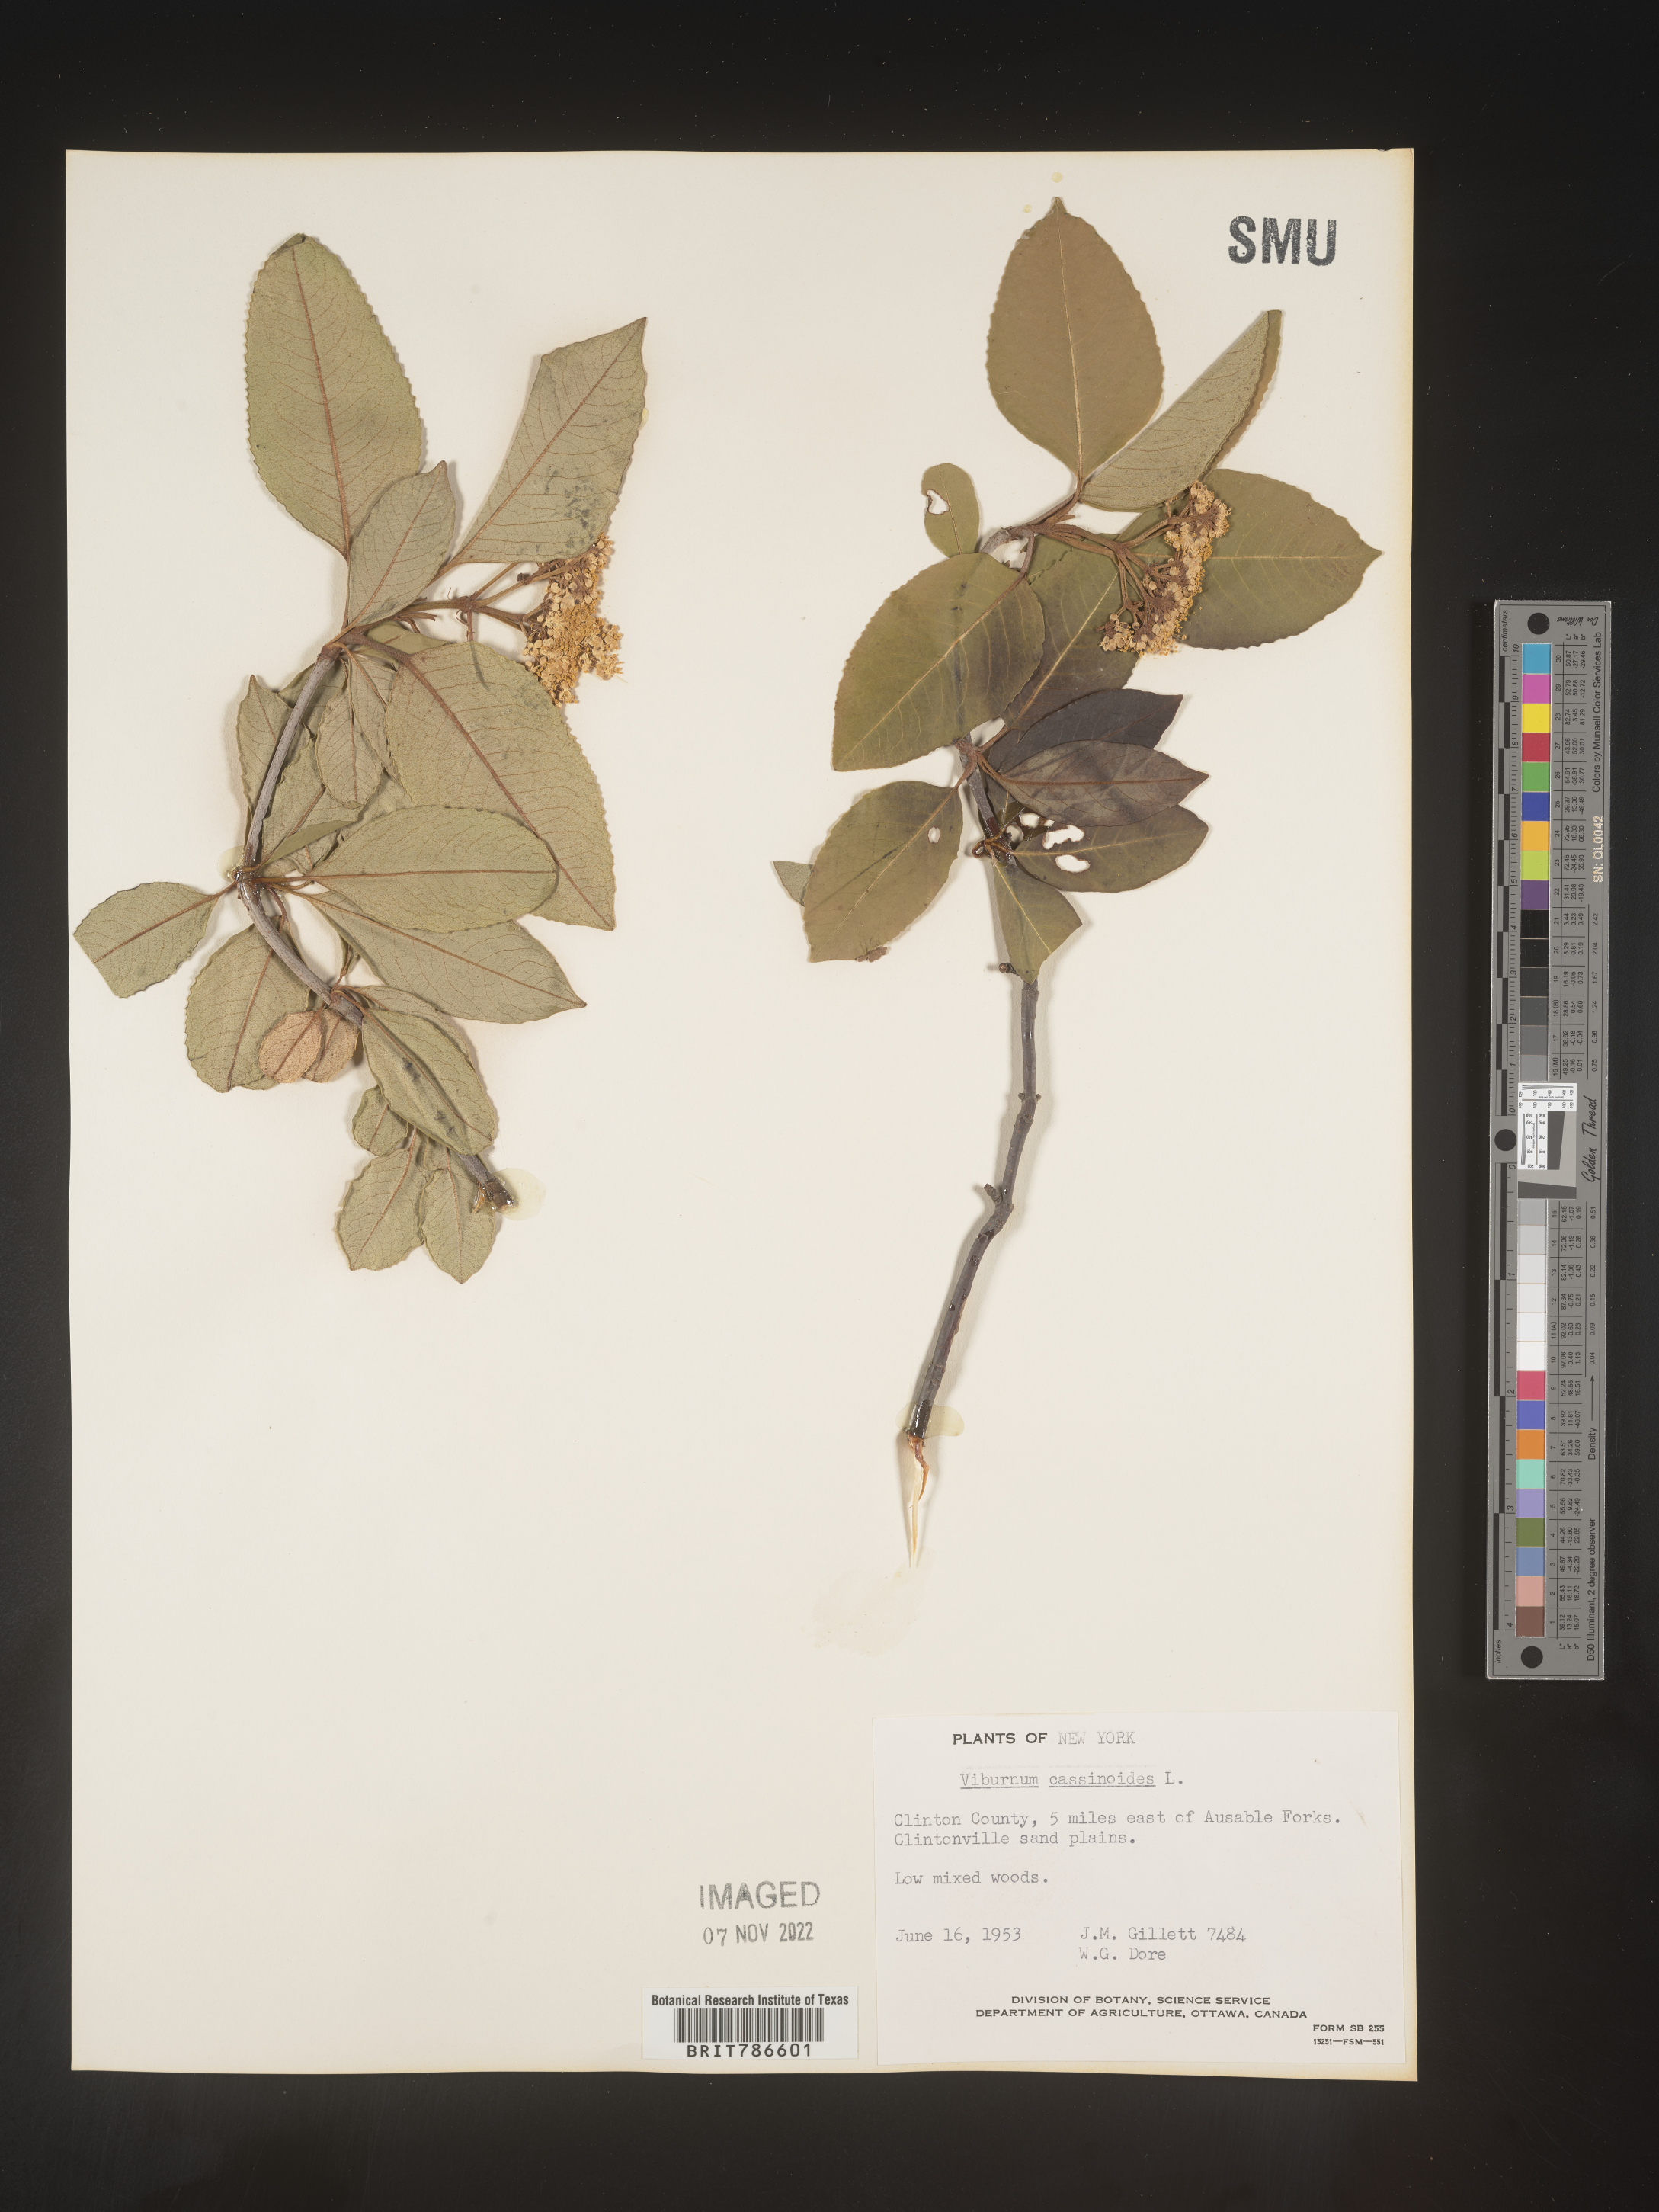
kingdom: Plantae
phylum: Tracheophyta
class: Magnoliopsida
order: Dipsacales
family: Viburnaceae
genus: Viburnum
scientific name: Viburnum cassinoides
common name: Swamp haw
